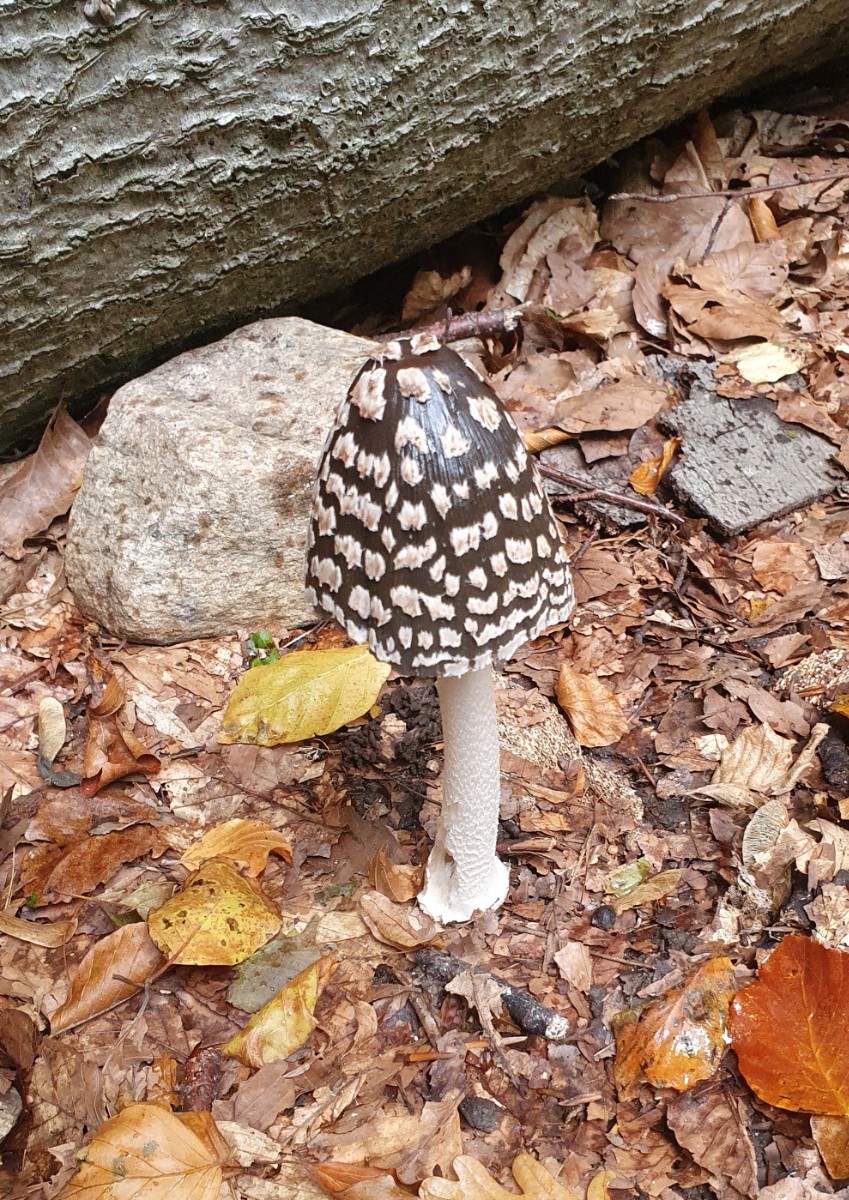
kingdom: Fungi
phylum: Basidiomycota
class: Agaricomycetes
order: Agaricales
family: Psathyrellaceae
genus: Coprinopsis
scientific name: Coprinopsis picacea
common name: skade-blækhat
